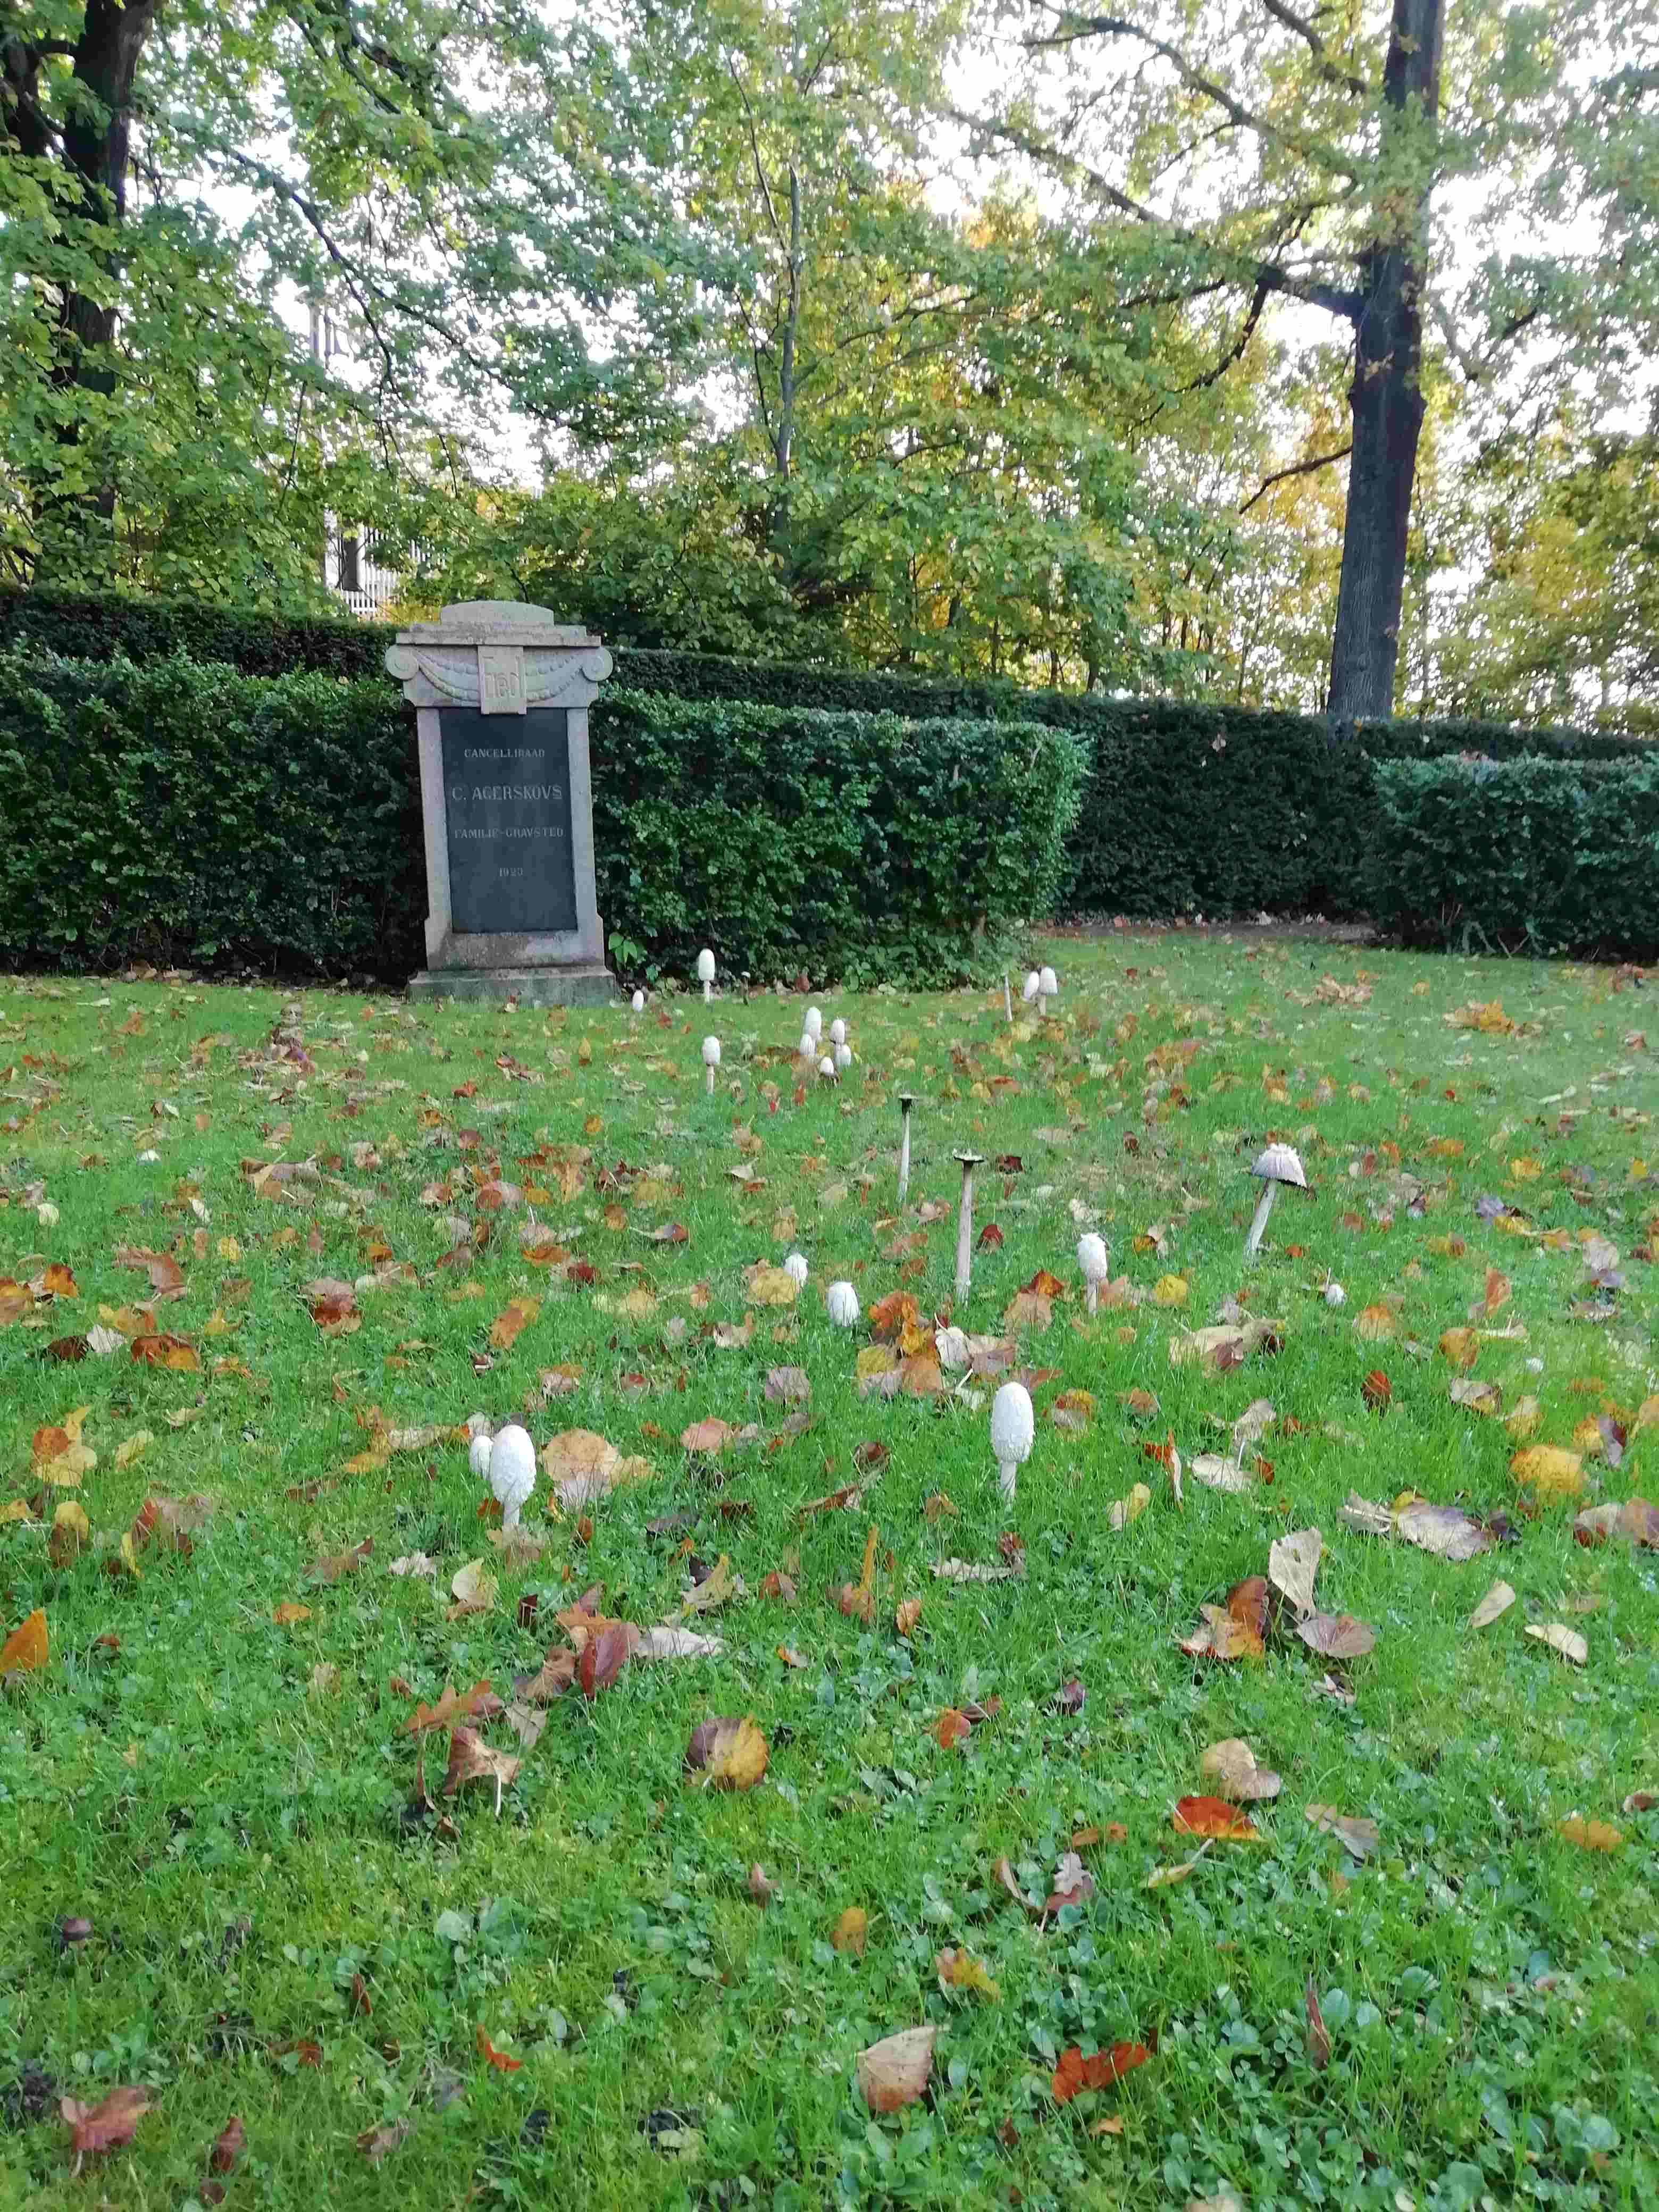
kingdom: Fungi
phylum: Basidiomycota
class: Agaricomycetes
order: Agaricales
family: Agaricaceae
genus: Coprinus
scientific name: Coprinus comatus
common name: stor parykhat
